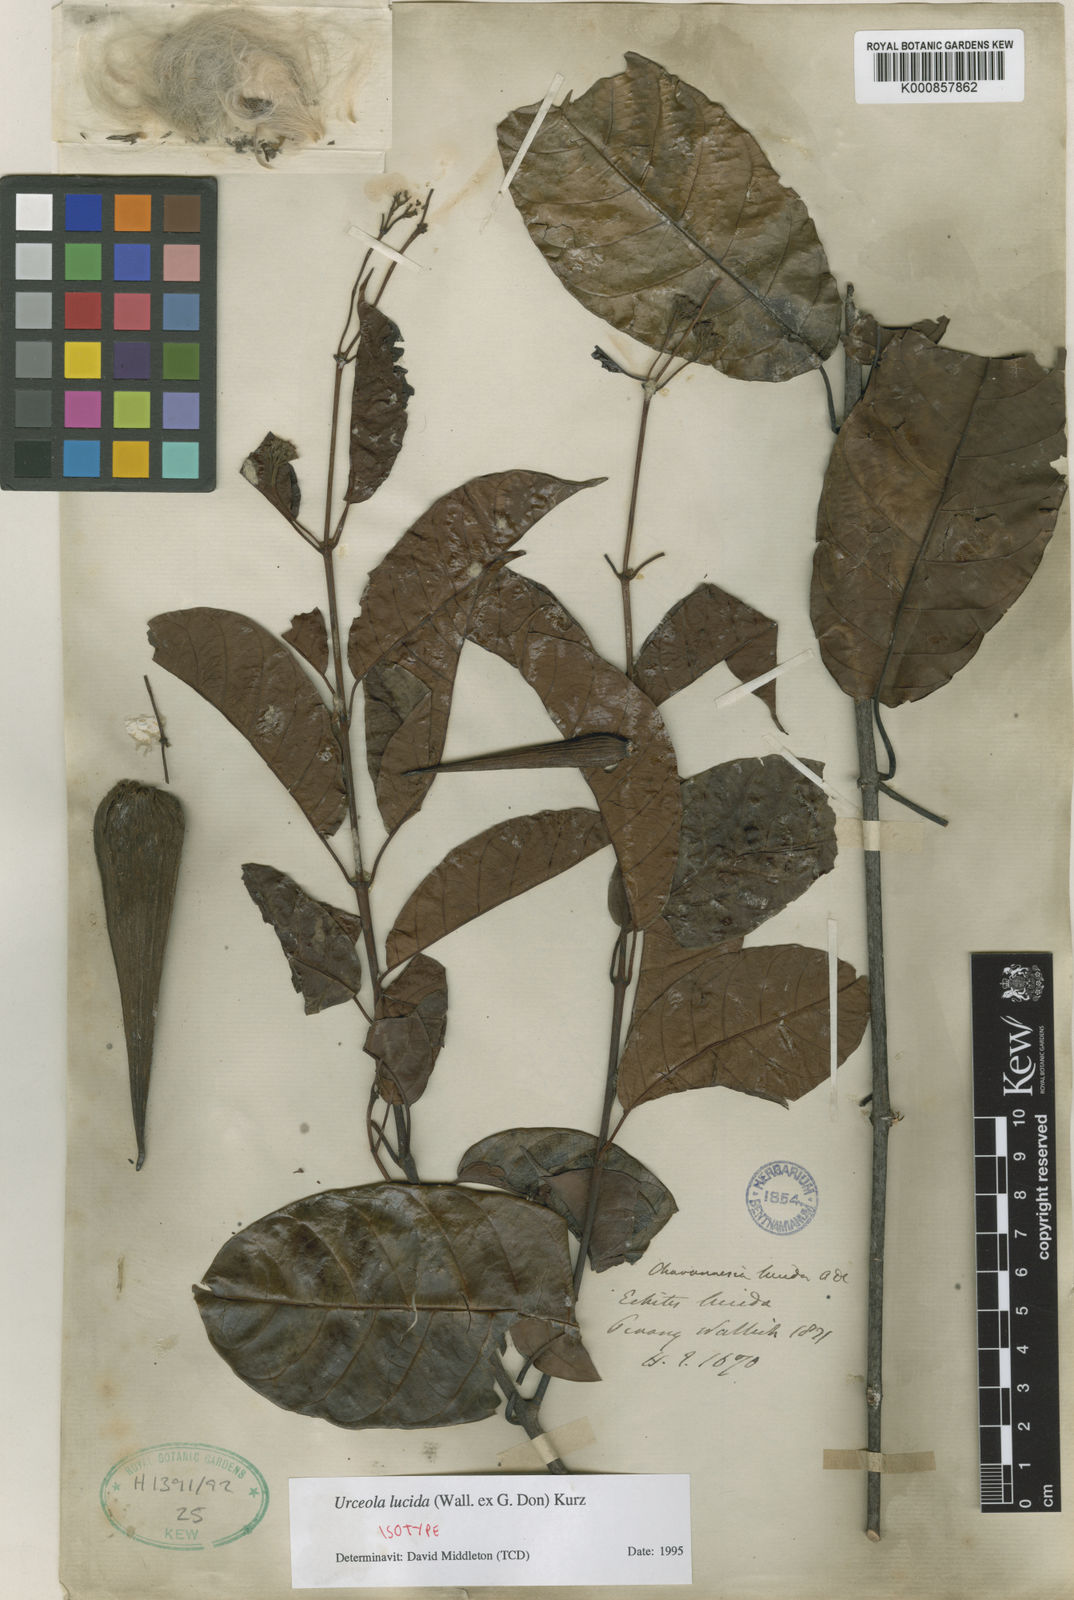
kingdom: Plantae
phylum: Tracheophyta
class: Magnoliopsida
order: Gentianales
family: Apocynaceae
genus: Urceola
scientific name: Urceola lucida
